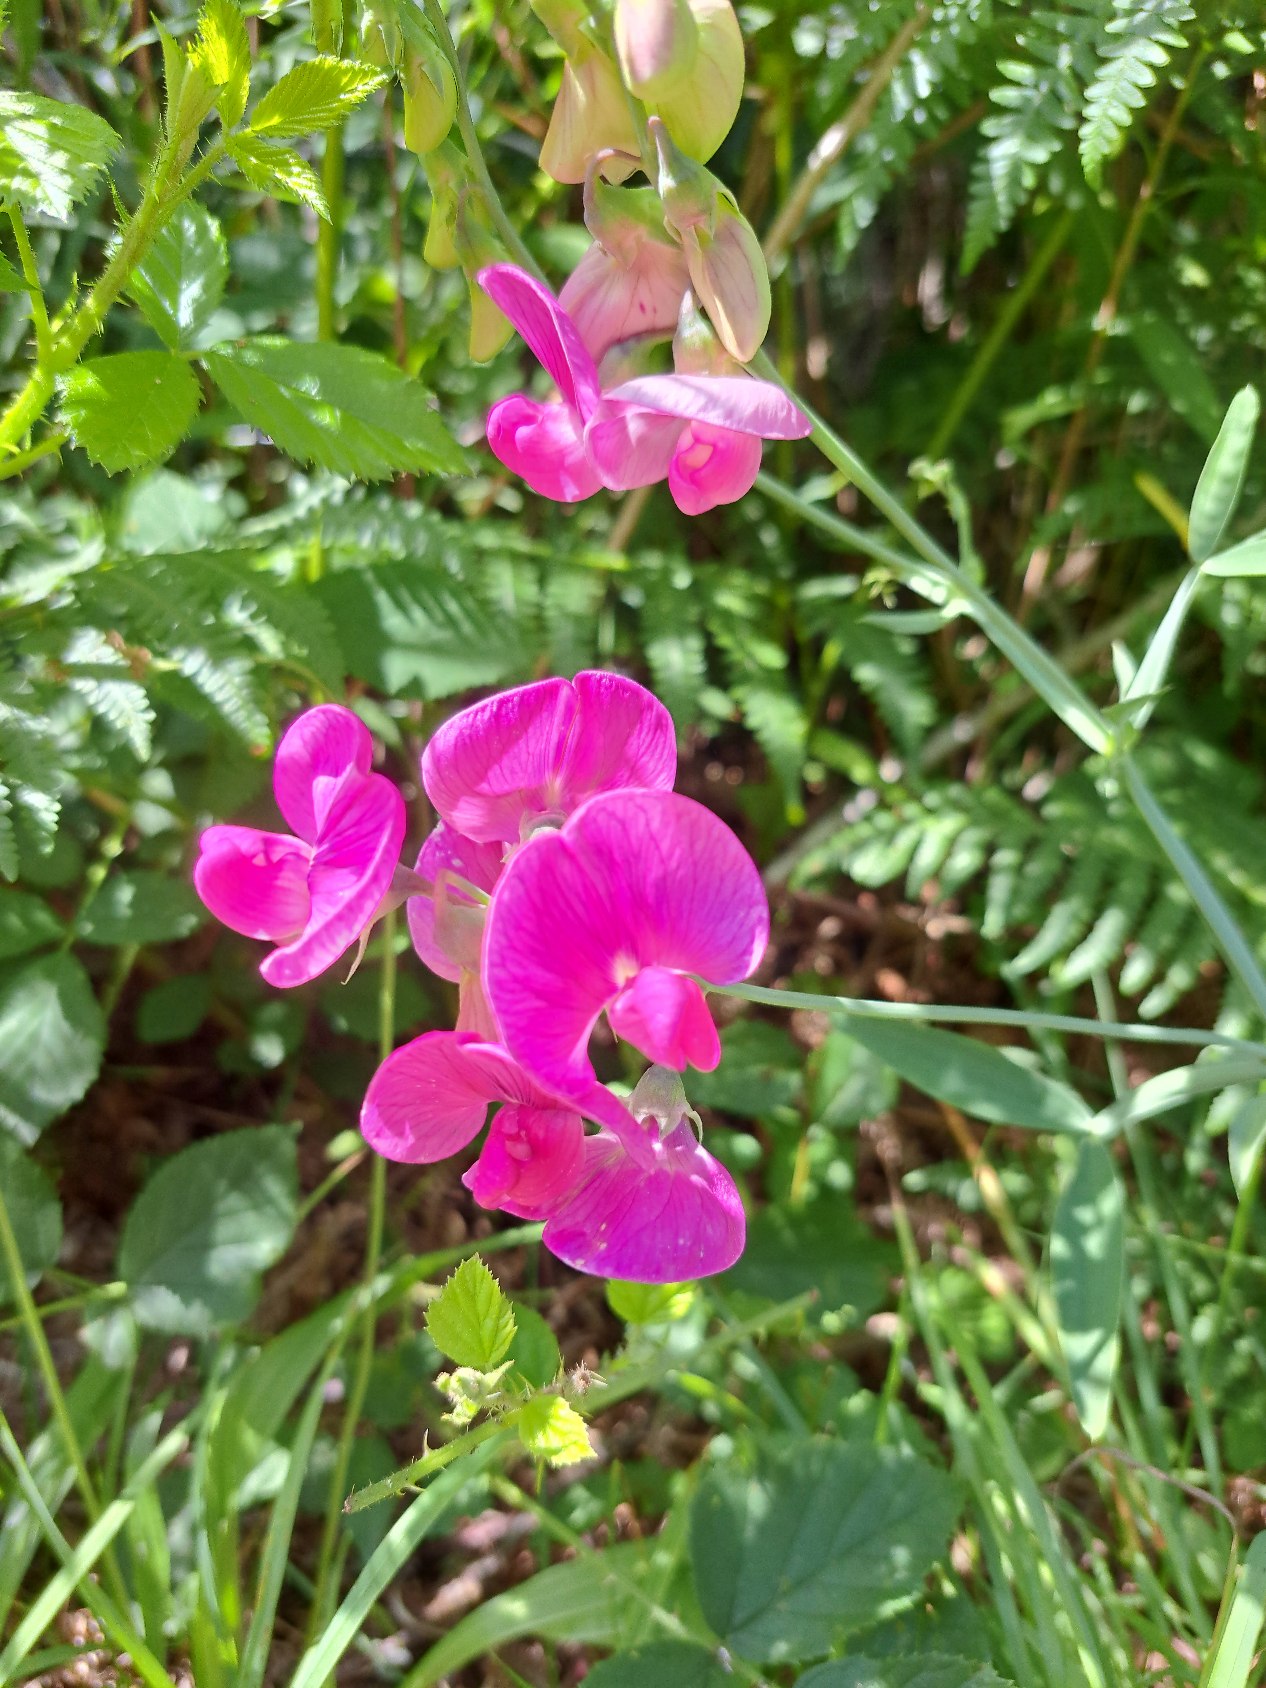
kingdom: Plantae
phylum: Tracheophyta
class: Magnoliopsida
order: Fabales
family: Fabaceae
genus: Lathyrus
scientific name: Lathyrus latifolius
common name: Flerårig ærteblomst
